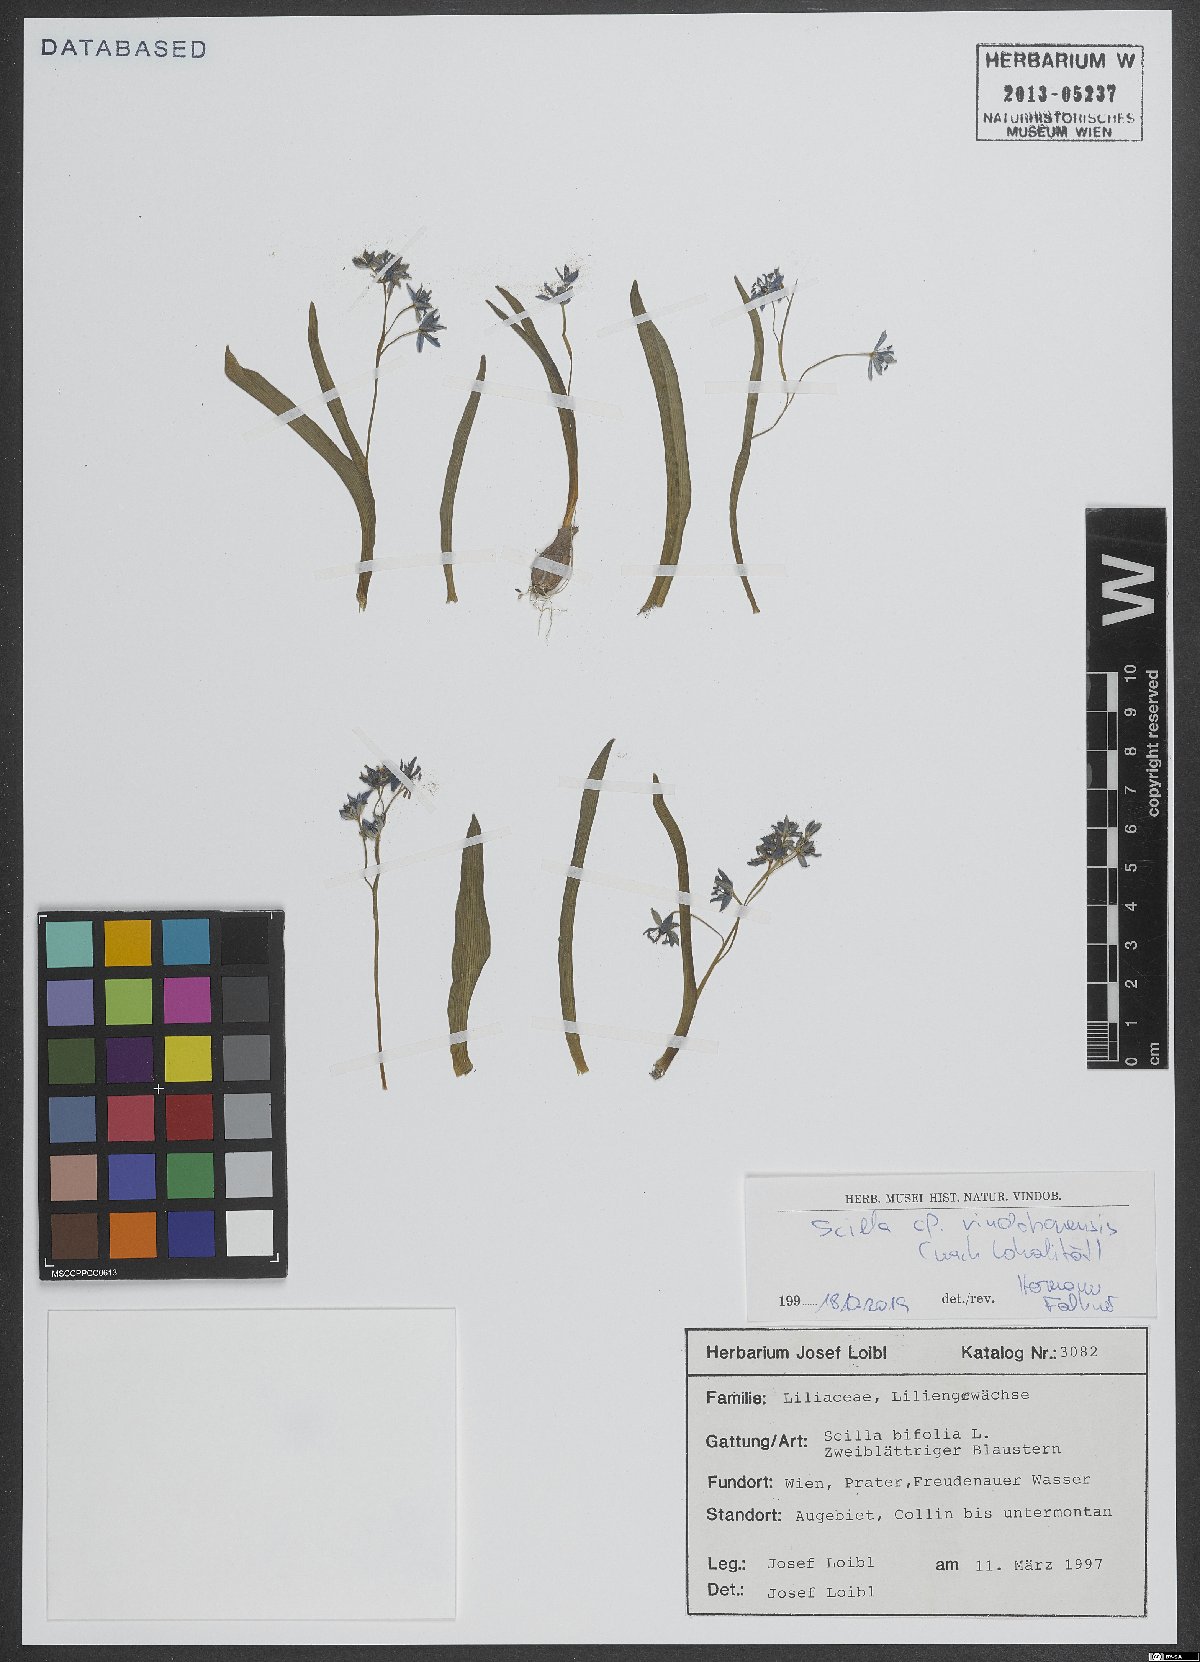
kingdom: Plantae
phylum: Tracheophyta
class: Liliopsida
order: Asparagales
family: Asparagaceae
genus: Scilla
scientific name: Scilla vindobonensis
